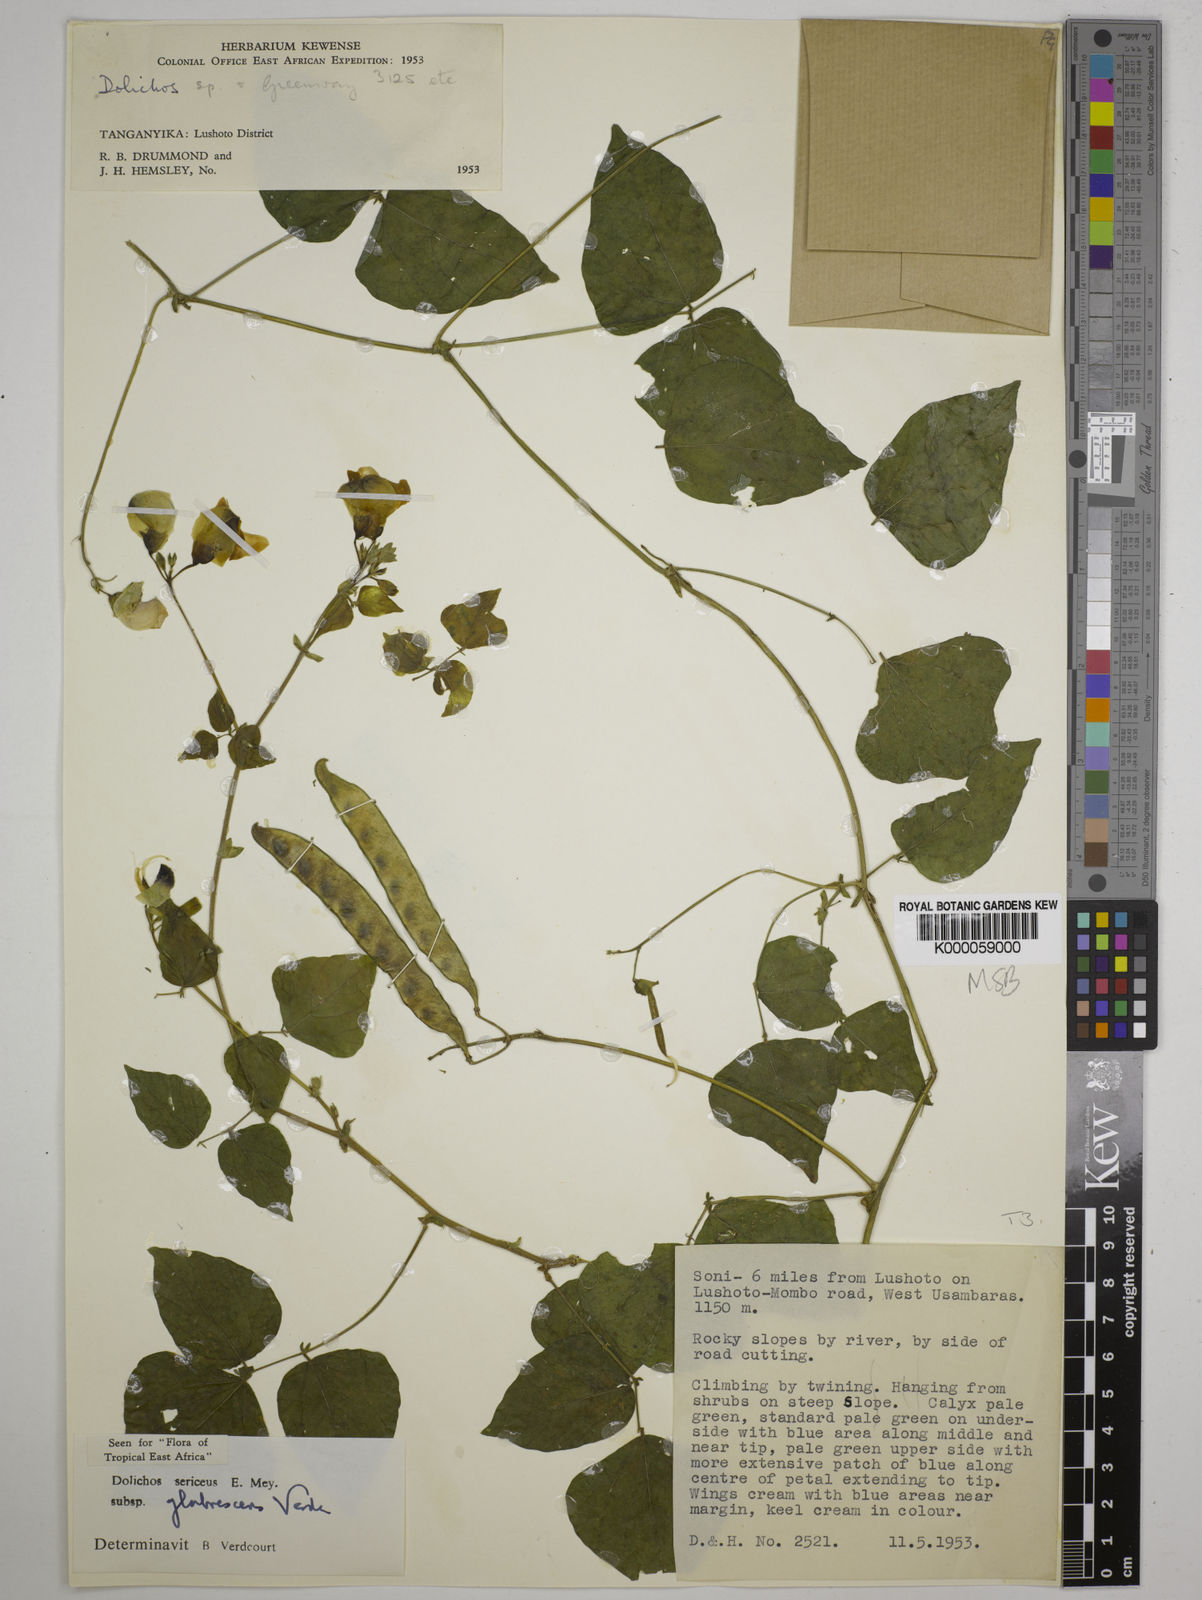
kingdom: Plantae
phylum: Tracheophyta
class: Magnoliopsida
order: Fabales
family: Fabaceae
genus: Dolichos
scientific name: Dolichos sericeus
